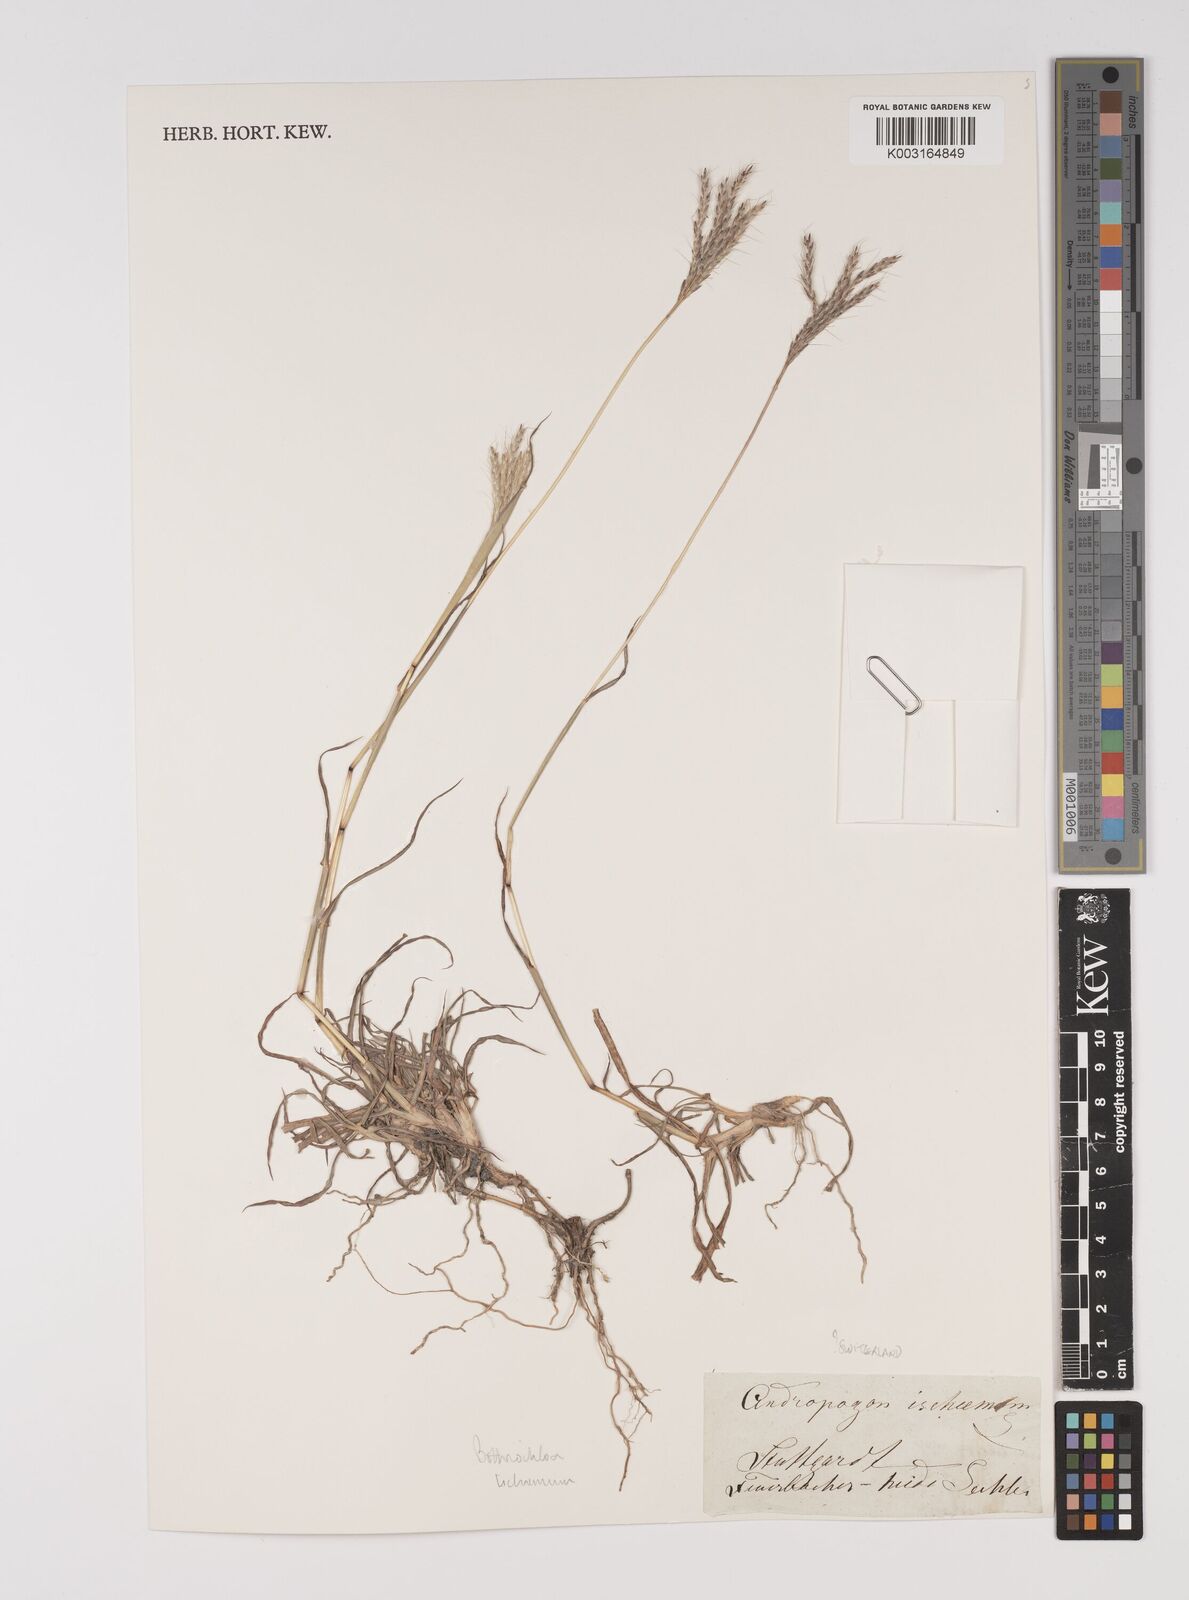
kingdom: Plantae
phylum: Tracheophyta
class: Liliopsida
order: Poales
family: Poaceae
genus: Bothriochloa
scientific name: Bothriochloa ischaemum
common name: Yellow bluestem
